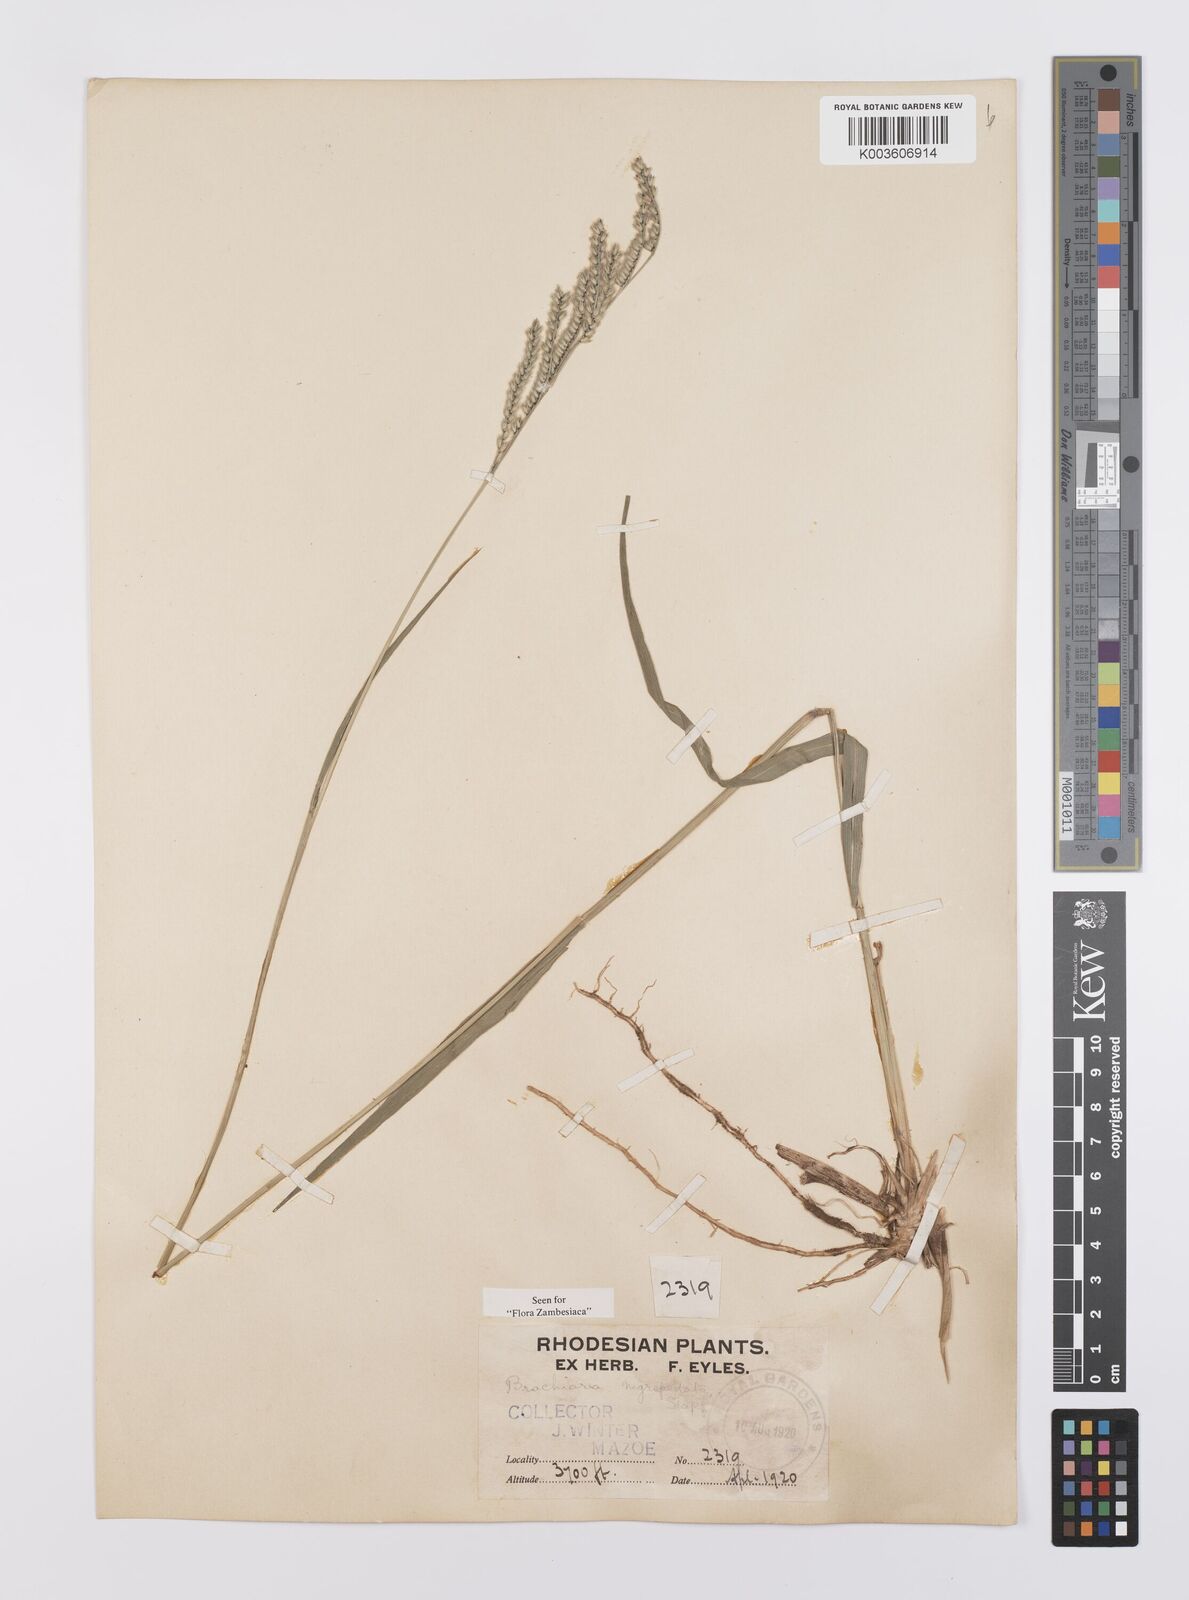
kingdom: Plantae
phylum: Tracheophyta
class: Liliopsida
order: Poales
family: Poaceae
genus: Urochloa
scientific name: Urochloa nigropedata
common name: Spotted signal grass
